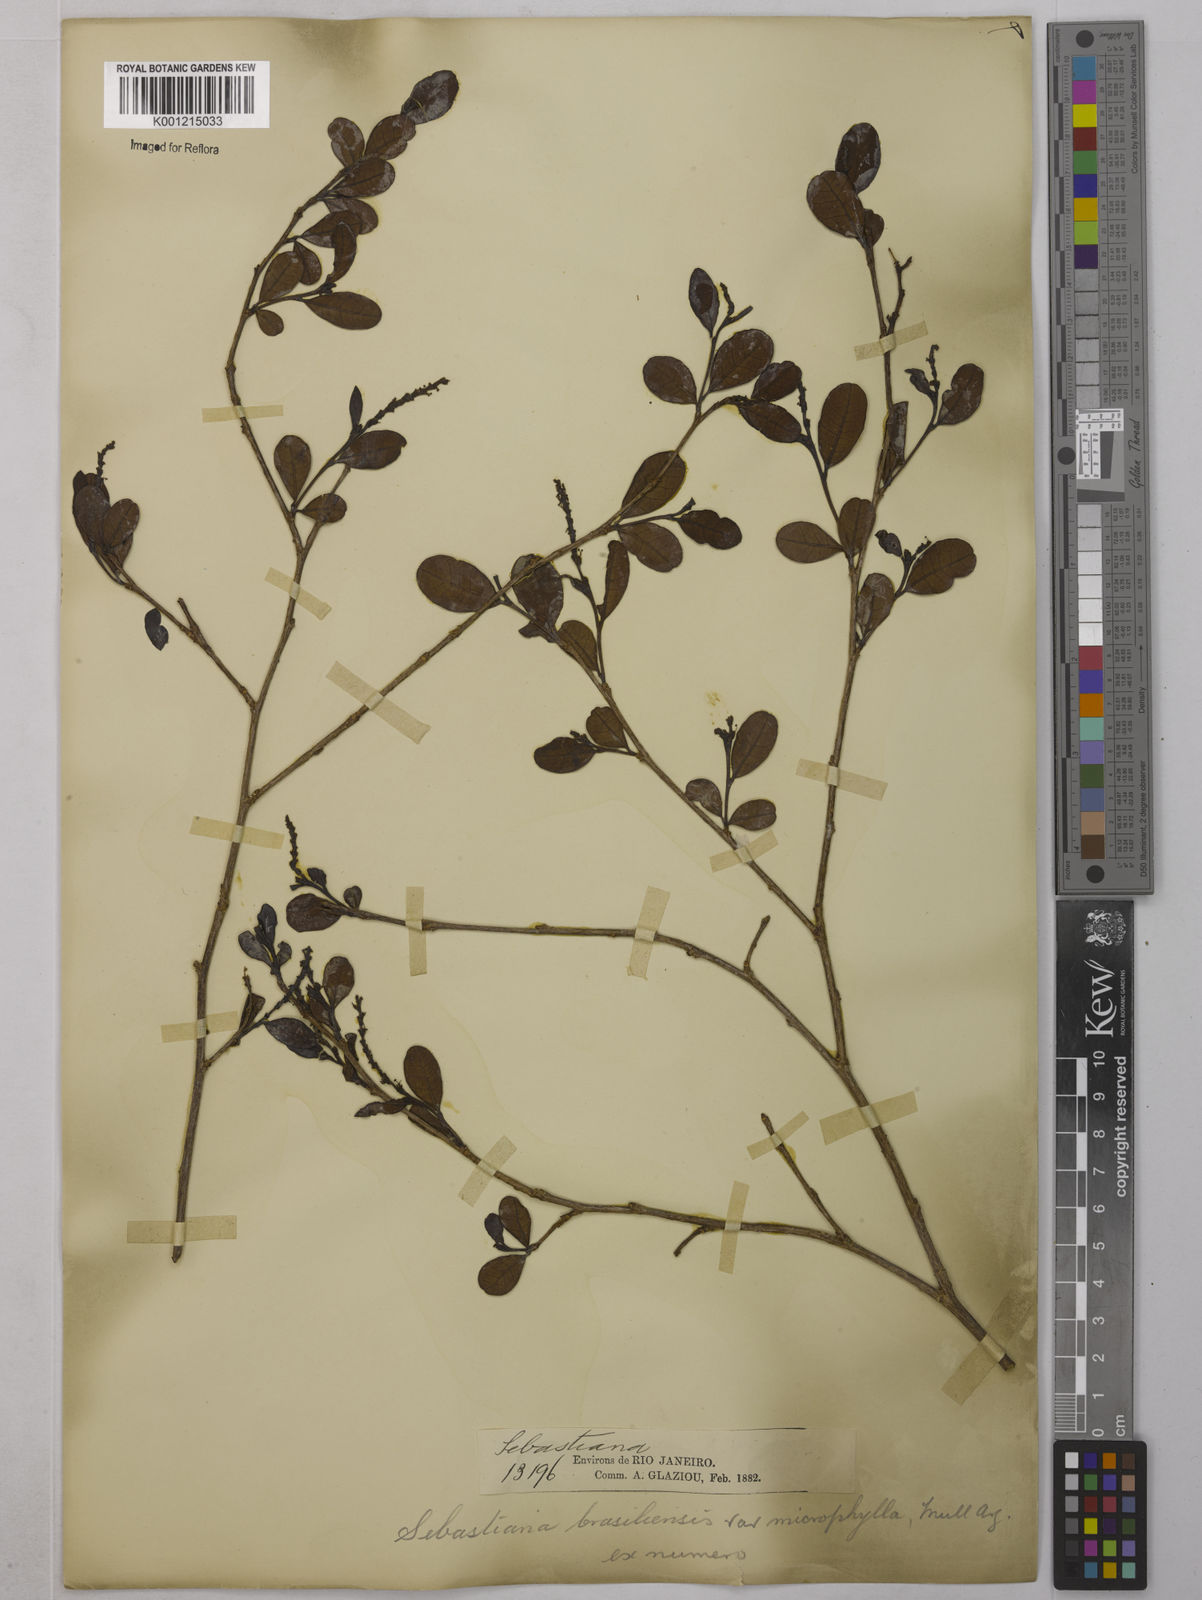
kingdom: Plantae
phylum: Tracheophyta
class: Magnoliopsida
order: Malpighiales
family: Euphorbiaceae
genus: Sebastiania
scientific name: Sebastiania brasiliensis
